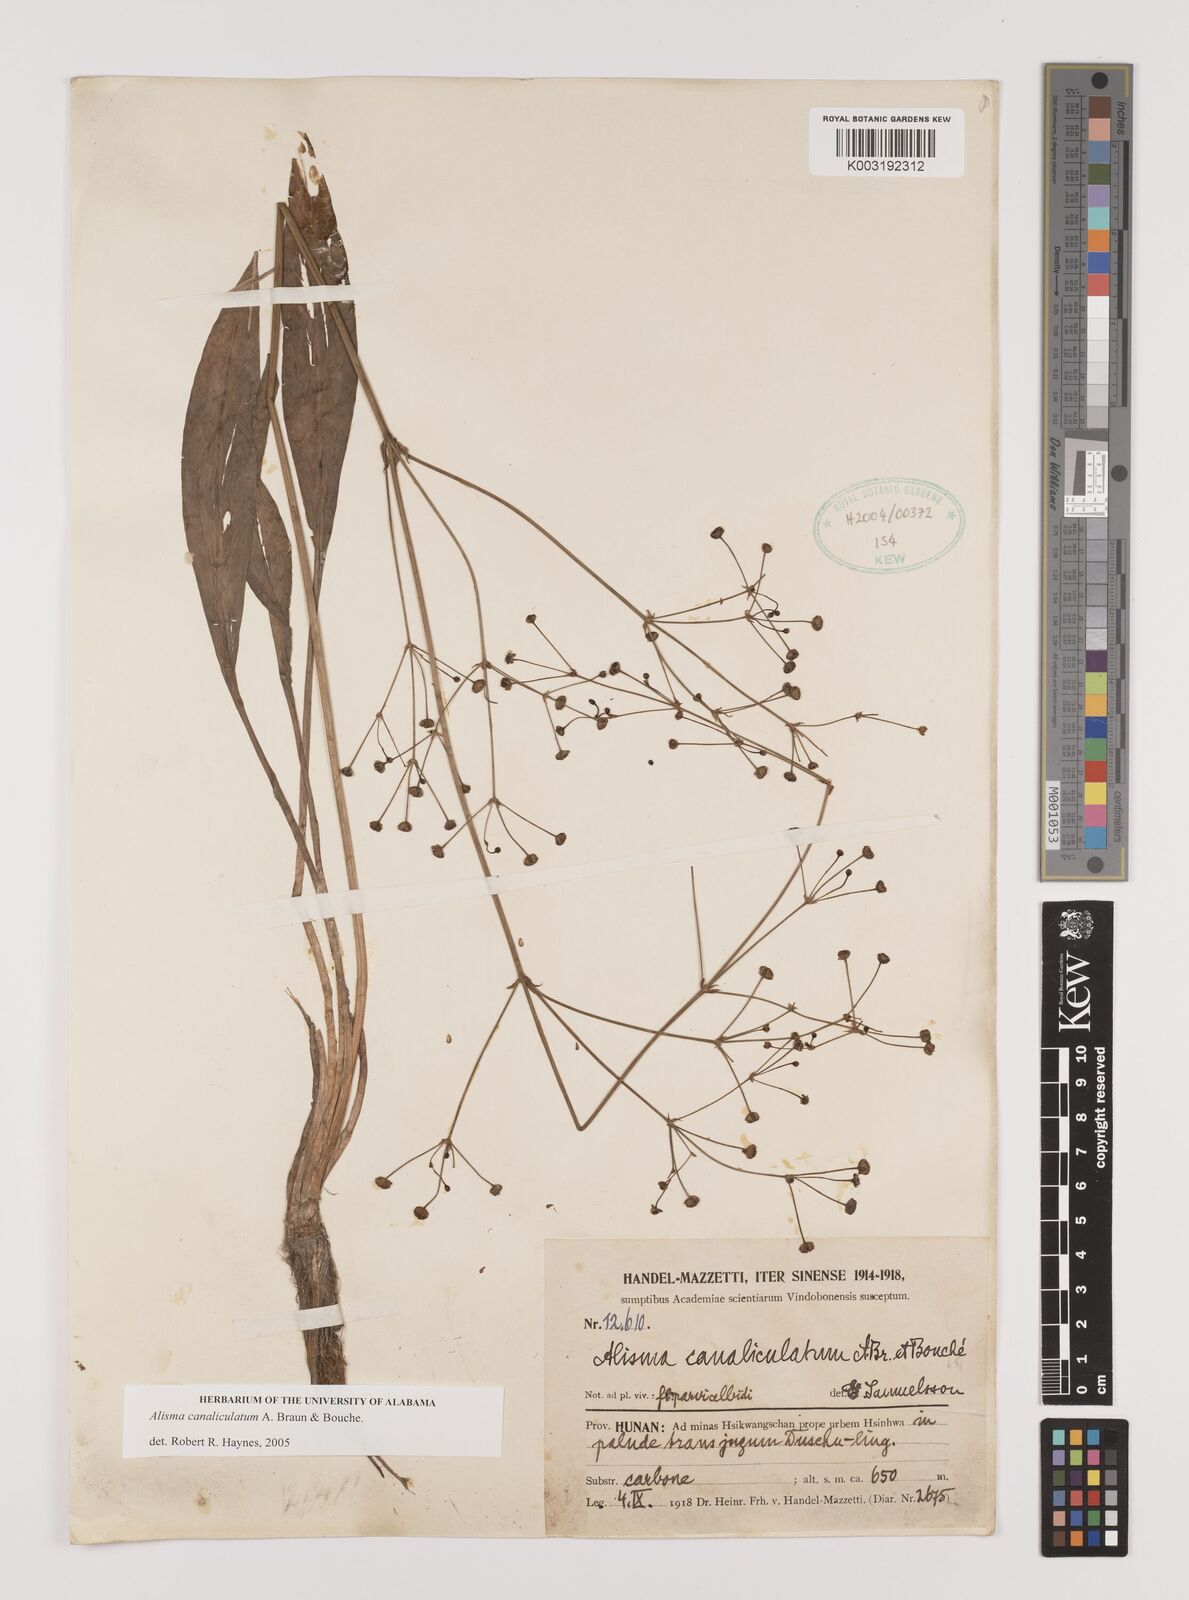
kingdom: Plantae
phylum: Tracheophyta
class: Liliopsida
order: Alismatales
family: Alismataceae
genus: Alisma
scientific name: Alisma canaliculatum
